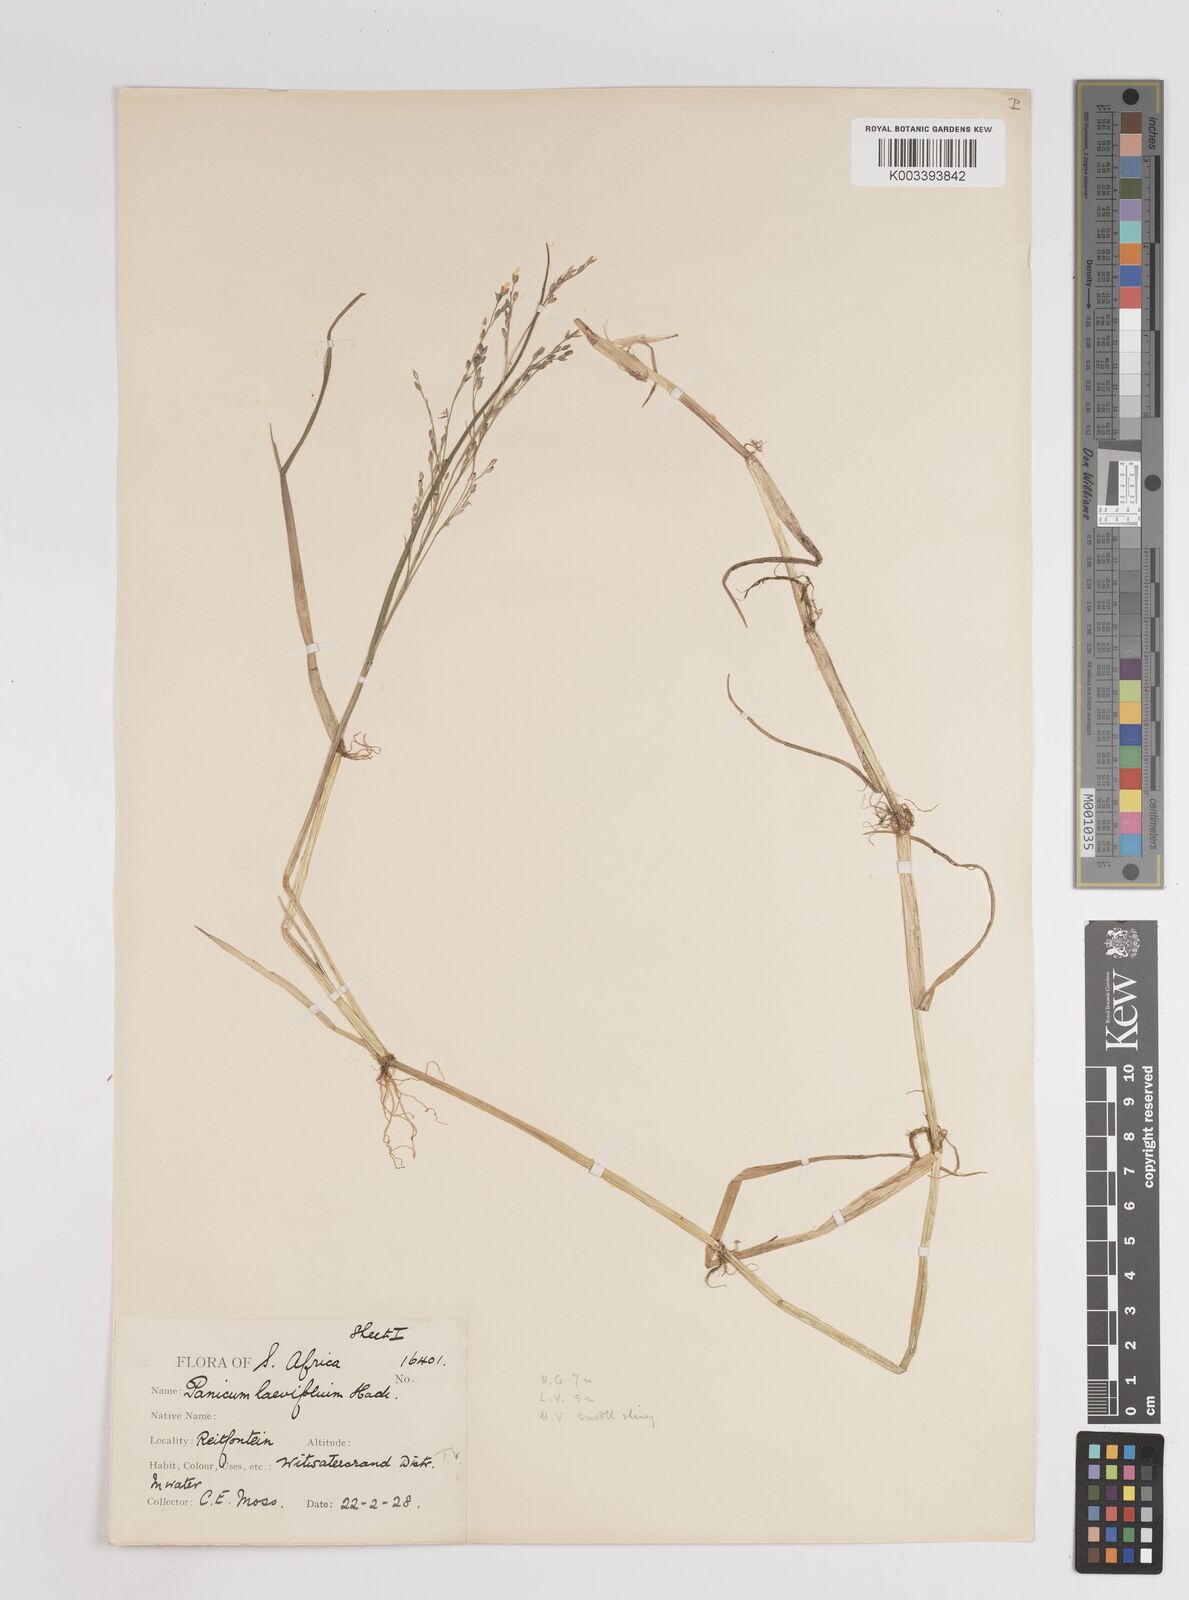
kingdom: Plantae
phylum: Tracheophyta
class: Liliopsida
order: Poales
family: Poaceae
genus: Panicum
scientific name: Panicum hygrocharis
